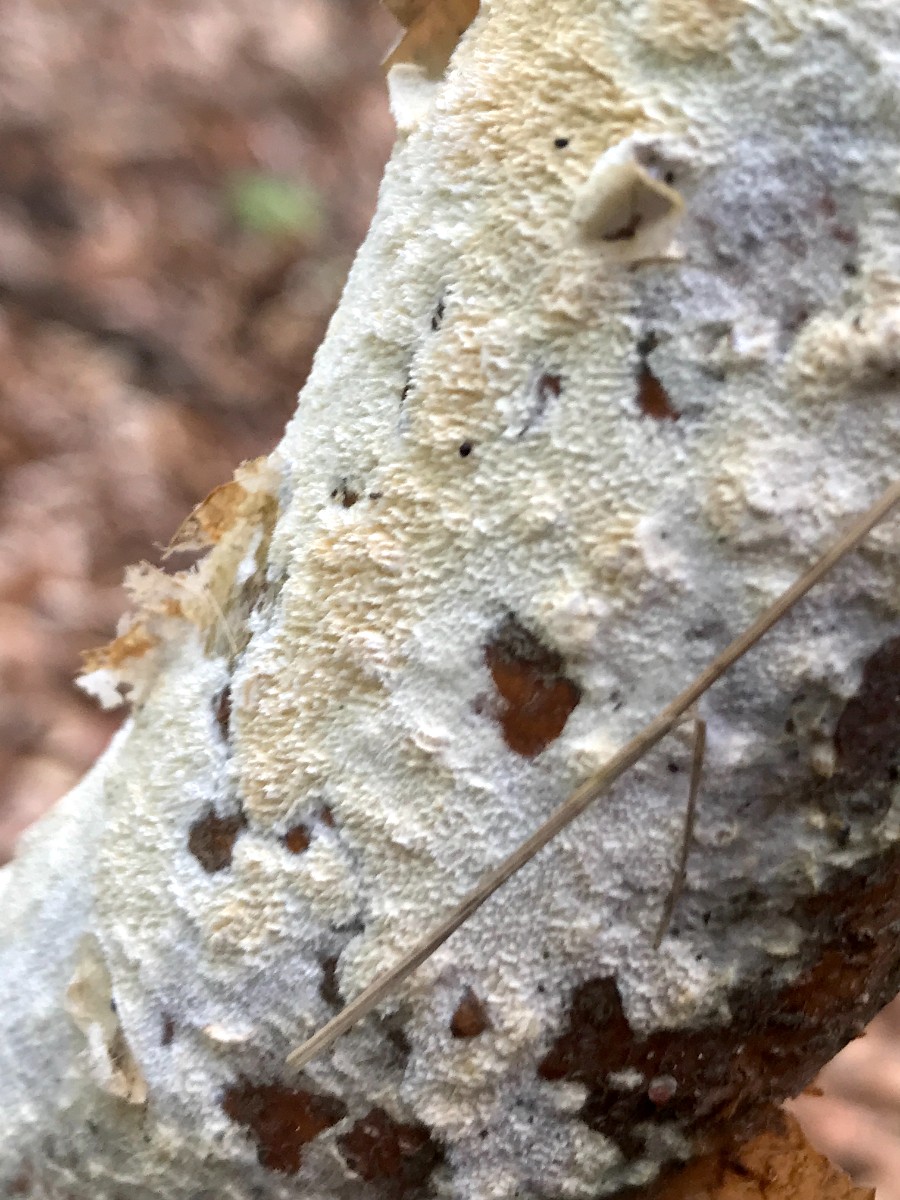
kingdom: Fungi
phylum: Basidiomycota
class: Agaricomycetes
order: Hymenochaetales
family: Schizoporaceae
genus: Schizopora
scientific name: Schizopora paradoxa
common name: hvid tandsvamp
